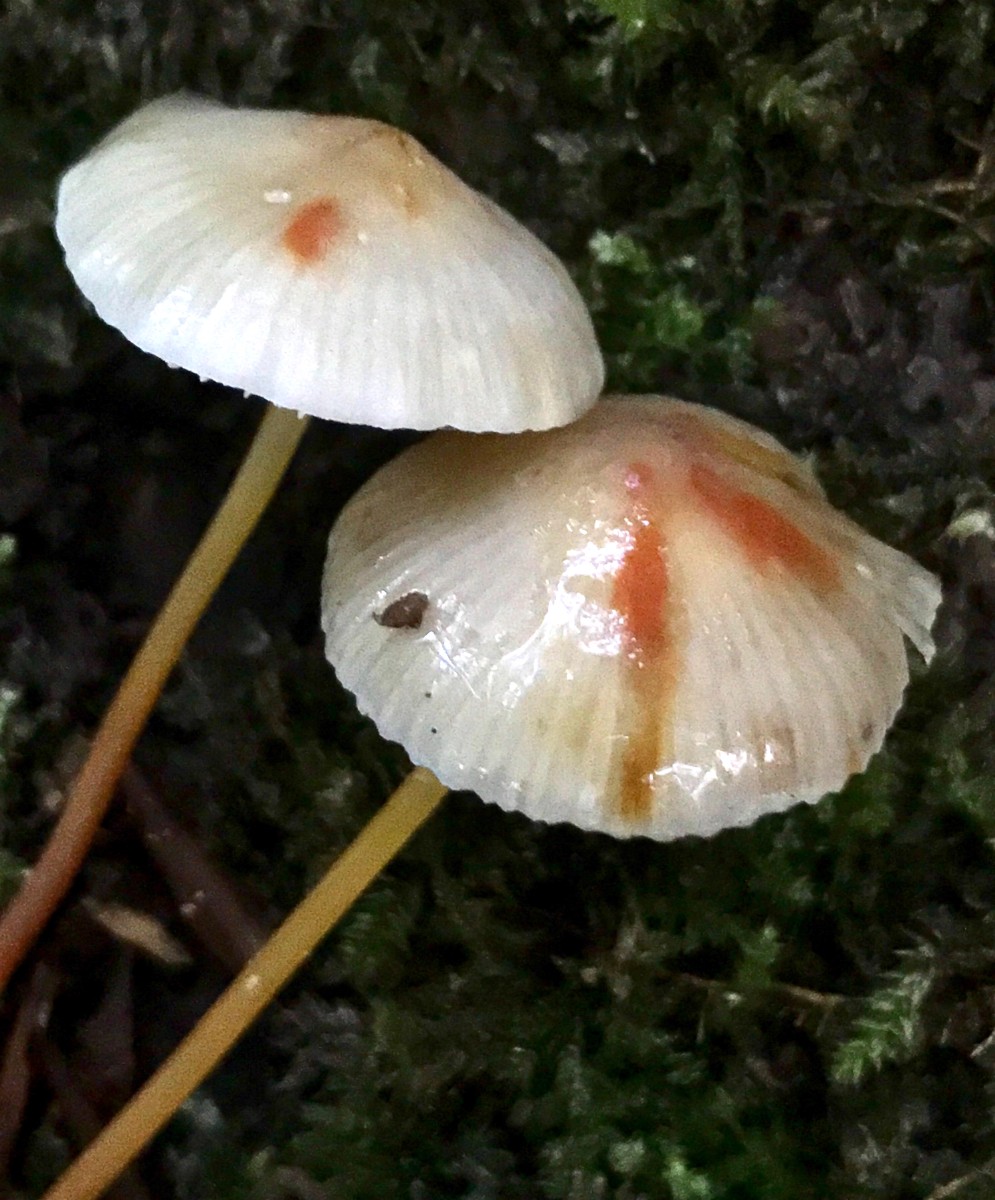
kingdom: Fungi
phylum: Basidiomycota
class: Agaricomycetes
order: Agaricales
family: Mycenaceae
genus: Mycena
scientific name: Mycena crocata
